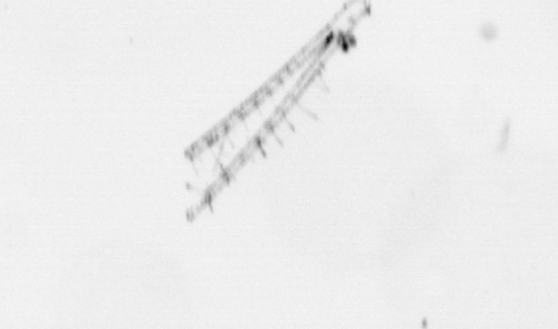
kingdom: Chromista
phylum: Ochrophyta
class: Bacillariophyceae
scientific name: Bacillariophyceae
